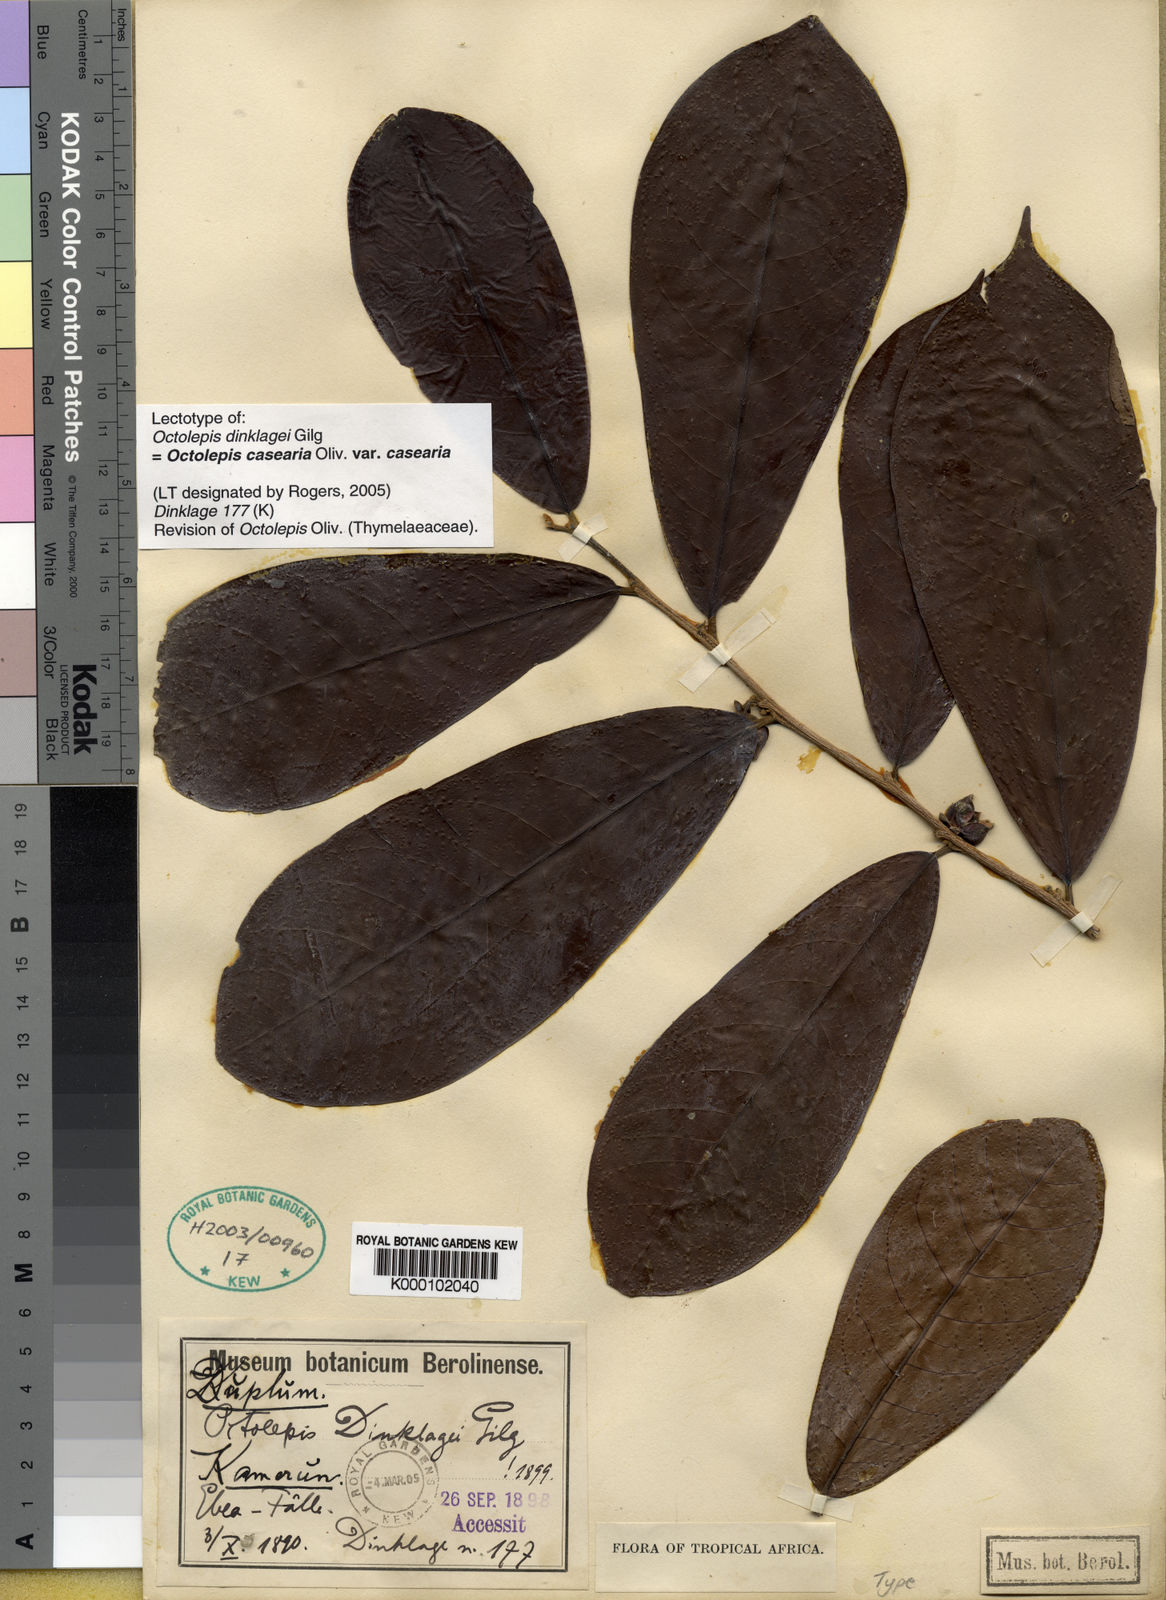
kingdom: Plantae
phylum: Tracheophyta
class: Magnoliopsida
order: Malvales
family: Thymelaeaceae
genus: Octolepis
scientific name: Octolepis casearia
